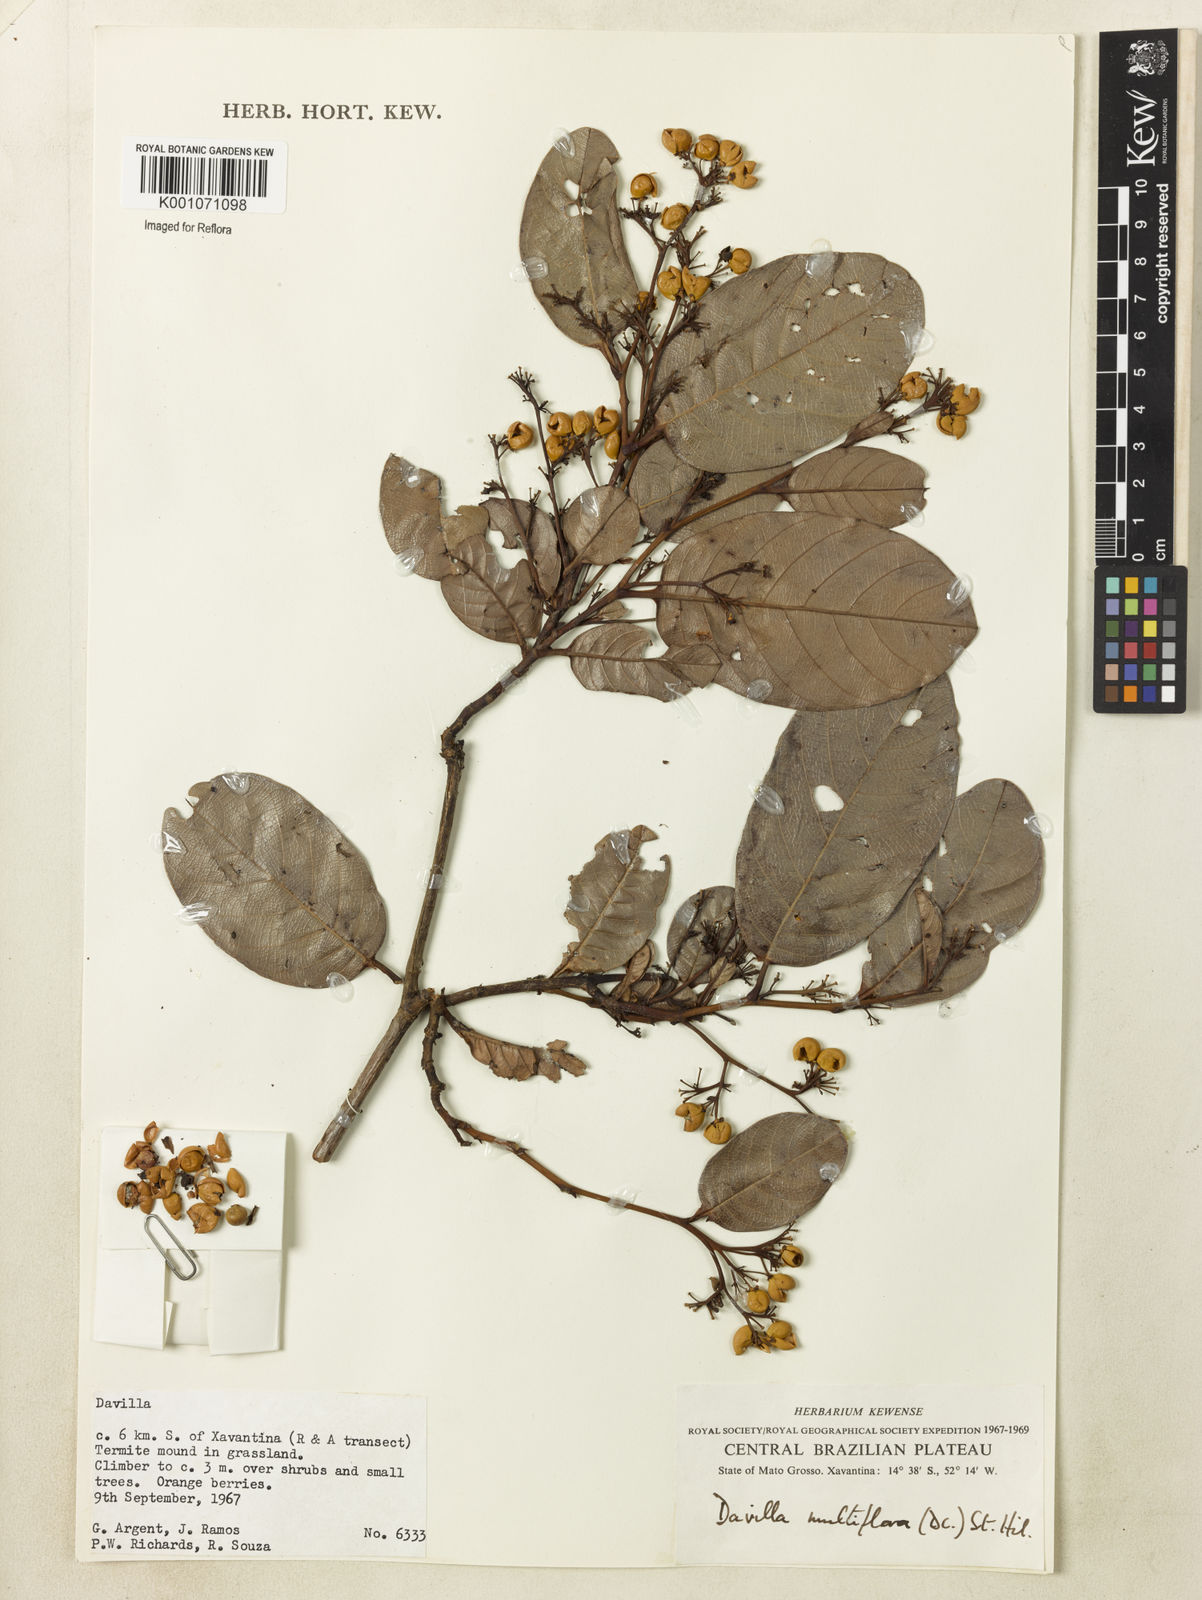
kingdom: Plantae
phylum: Tracheophyta
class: Magnoliopsida
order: Dilleniales
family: Dilleniaceae
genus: Davilla
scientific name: Davilla nitida
